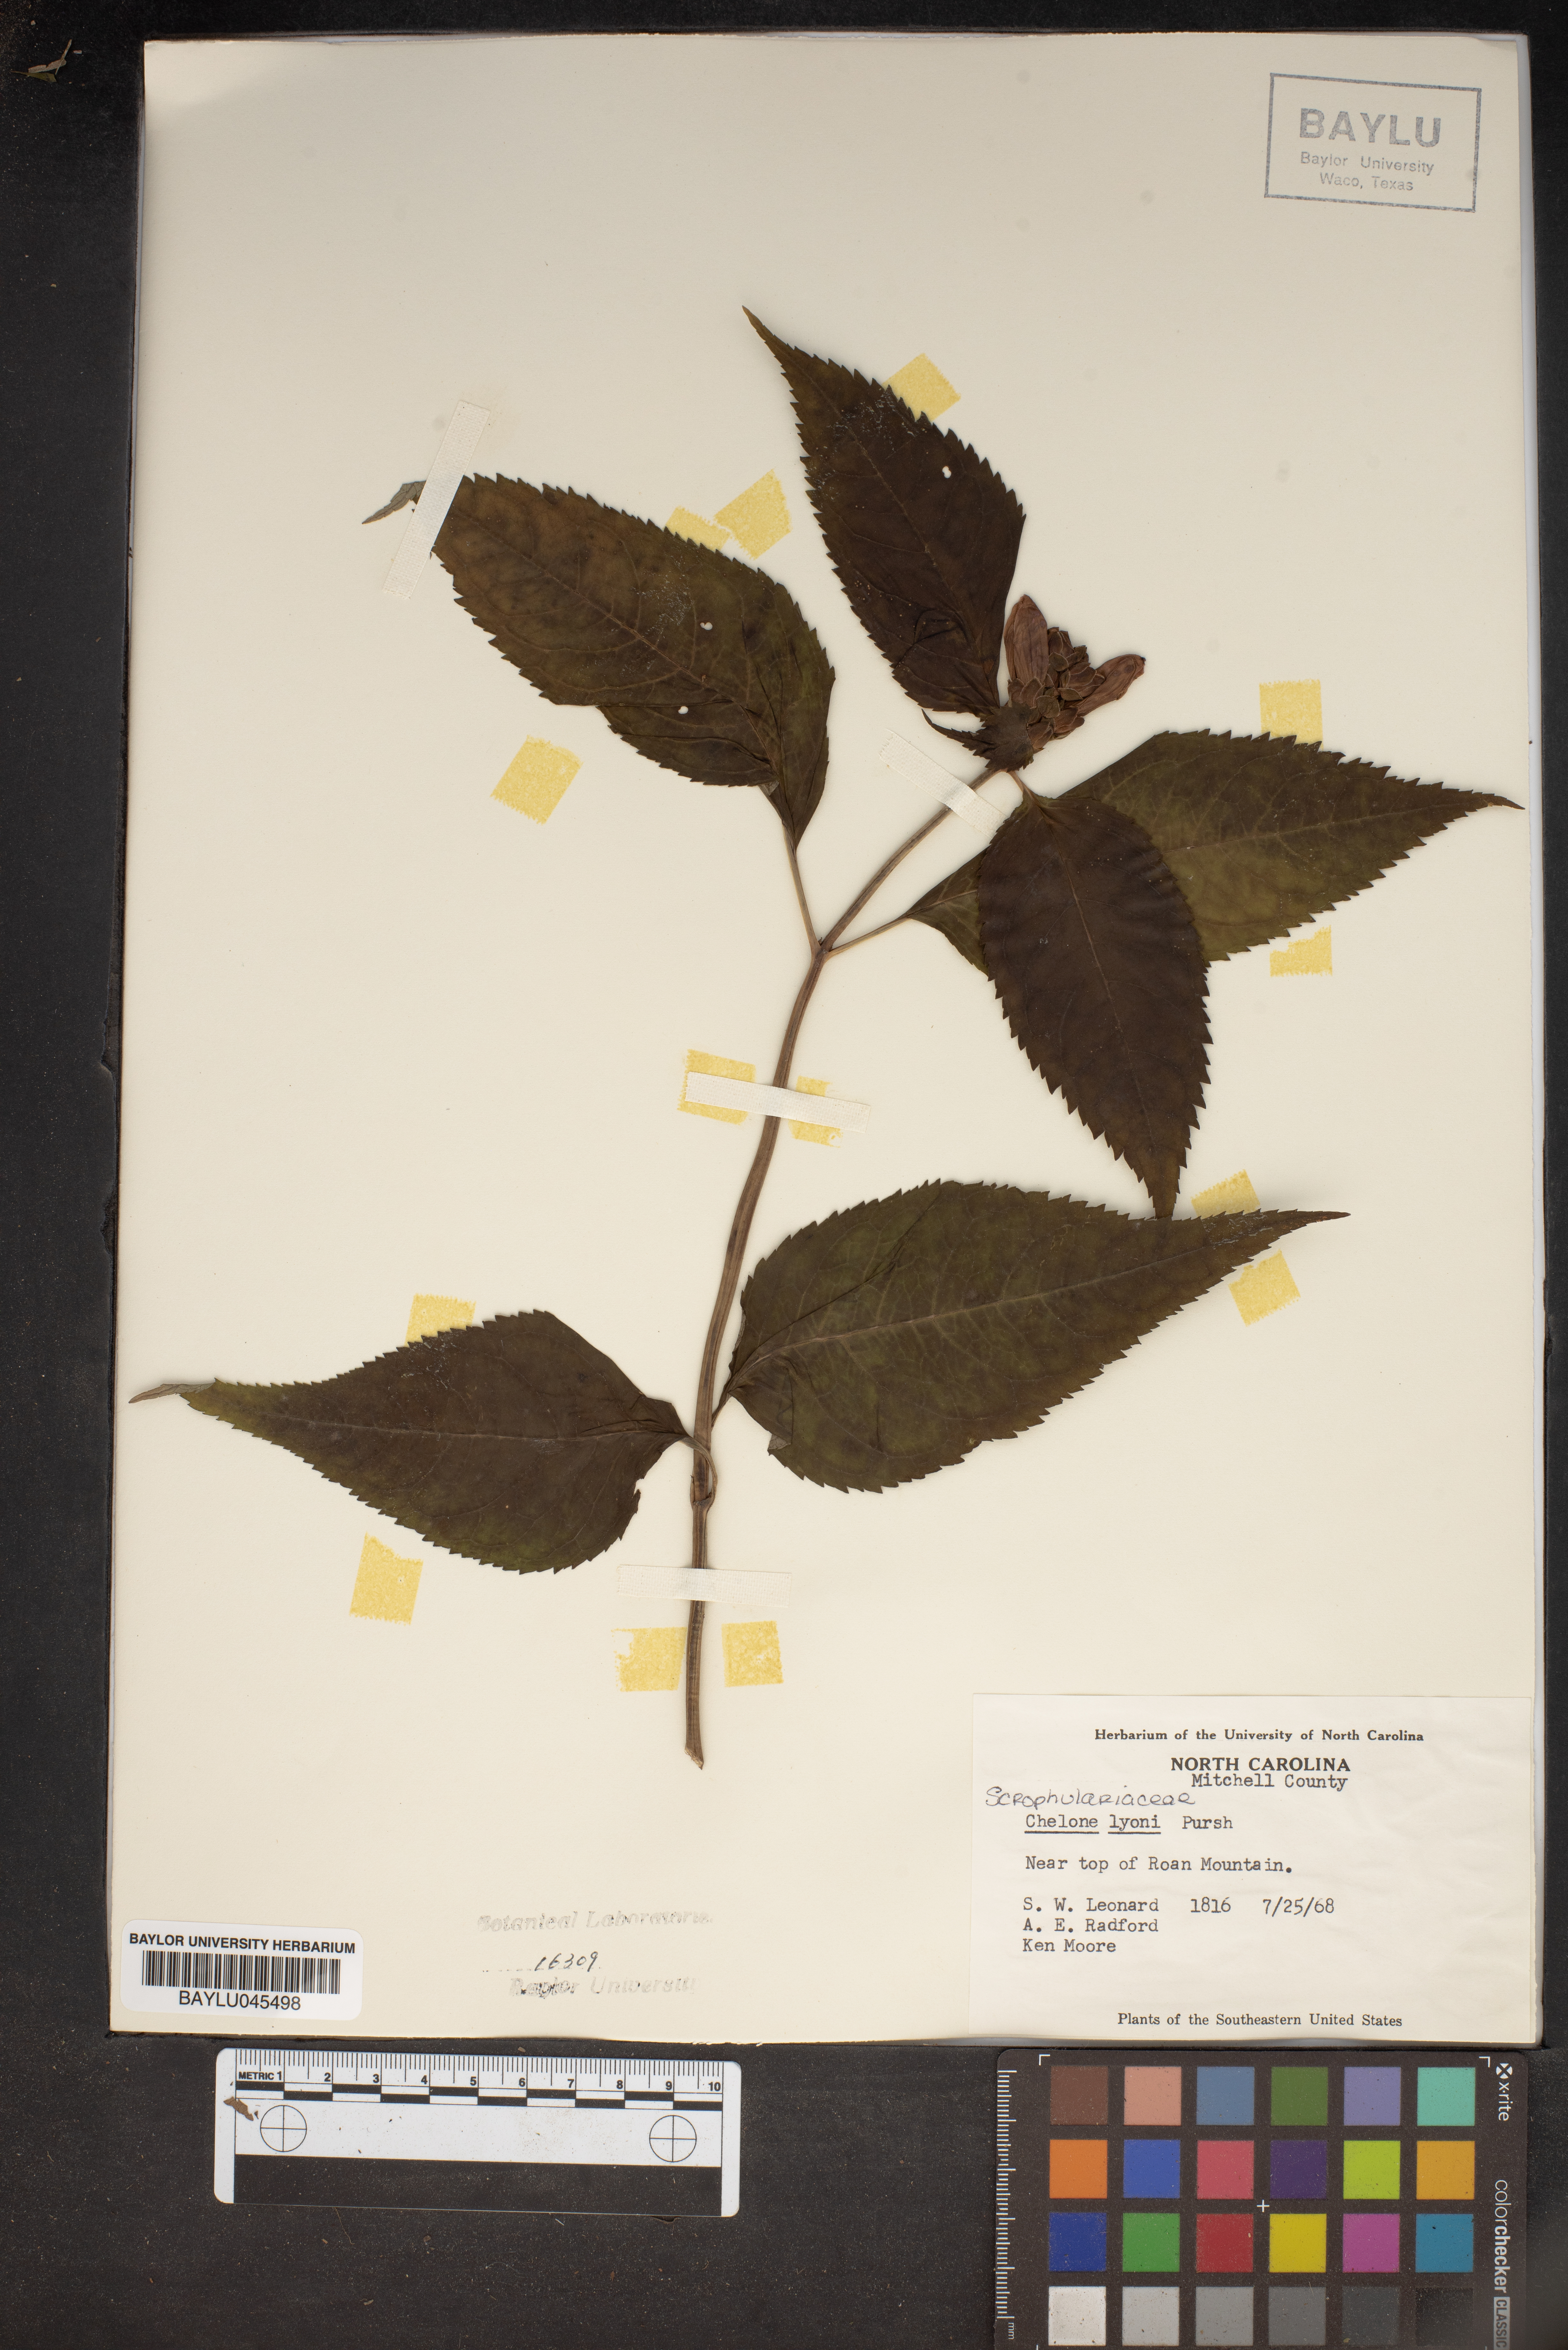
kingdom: Plantae
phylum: Tracheophyta
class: Magnoliopsida
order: Lamiales
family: Plantaginaceae
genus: Chelone
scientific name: Chelone lyonii
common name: Pink turtlehead
